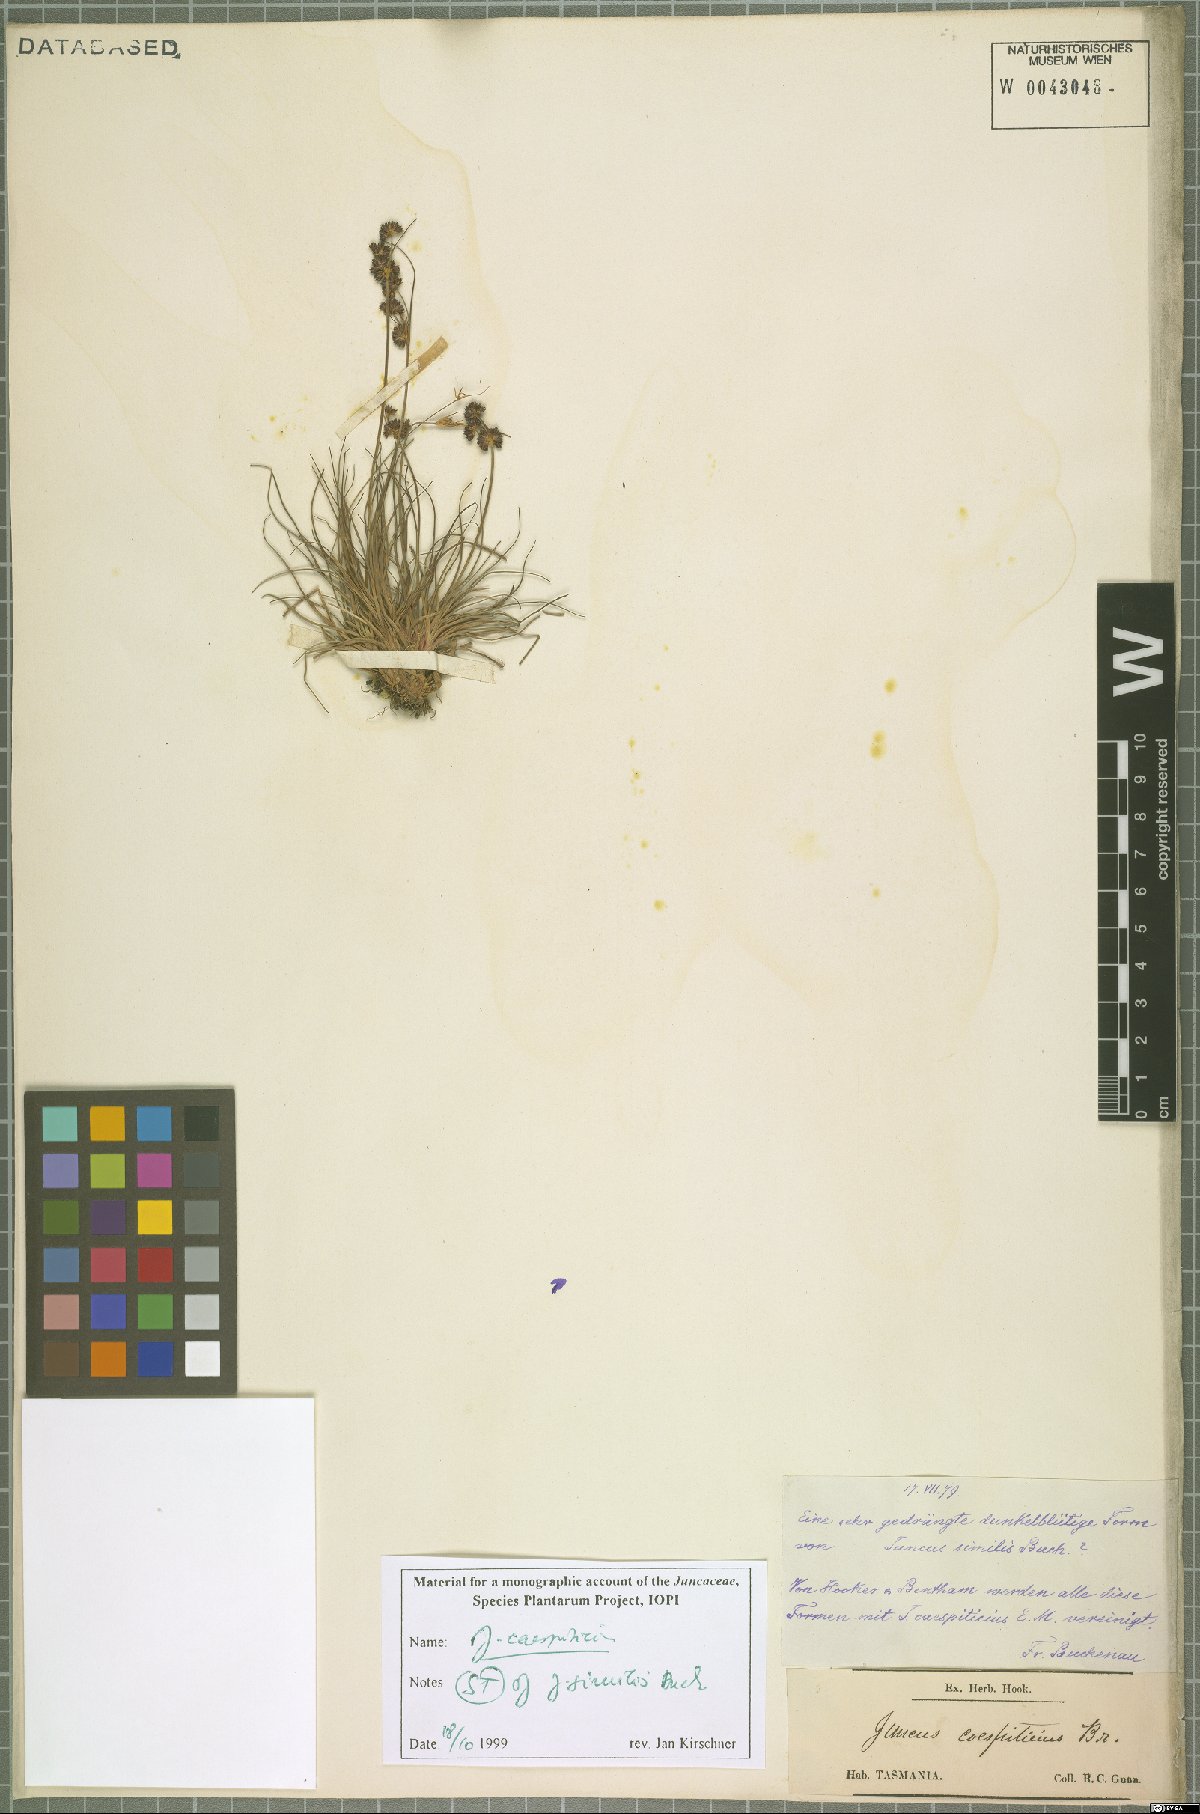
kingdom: Plantae
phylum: Tracheophyta
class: Liliopsida
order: Poales
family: Juncaceae
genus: Juncus
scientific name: Juncus caespiticius
